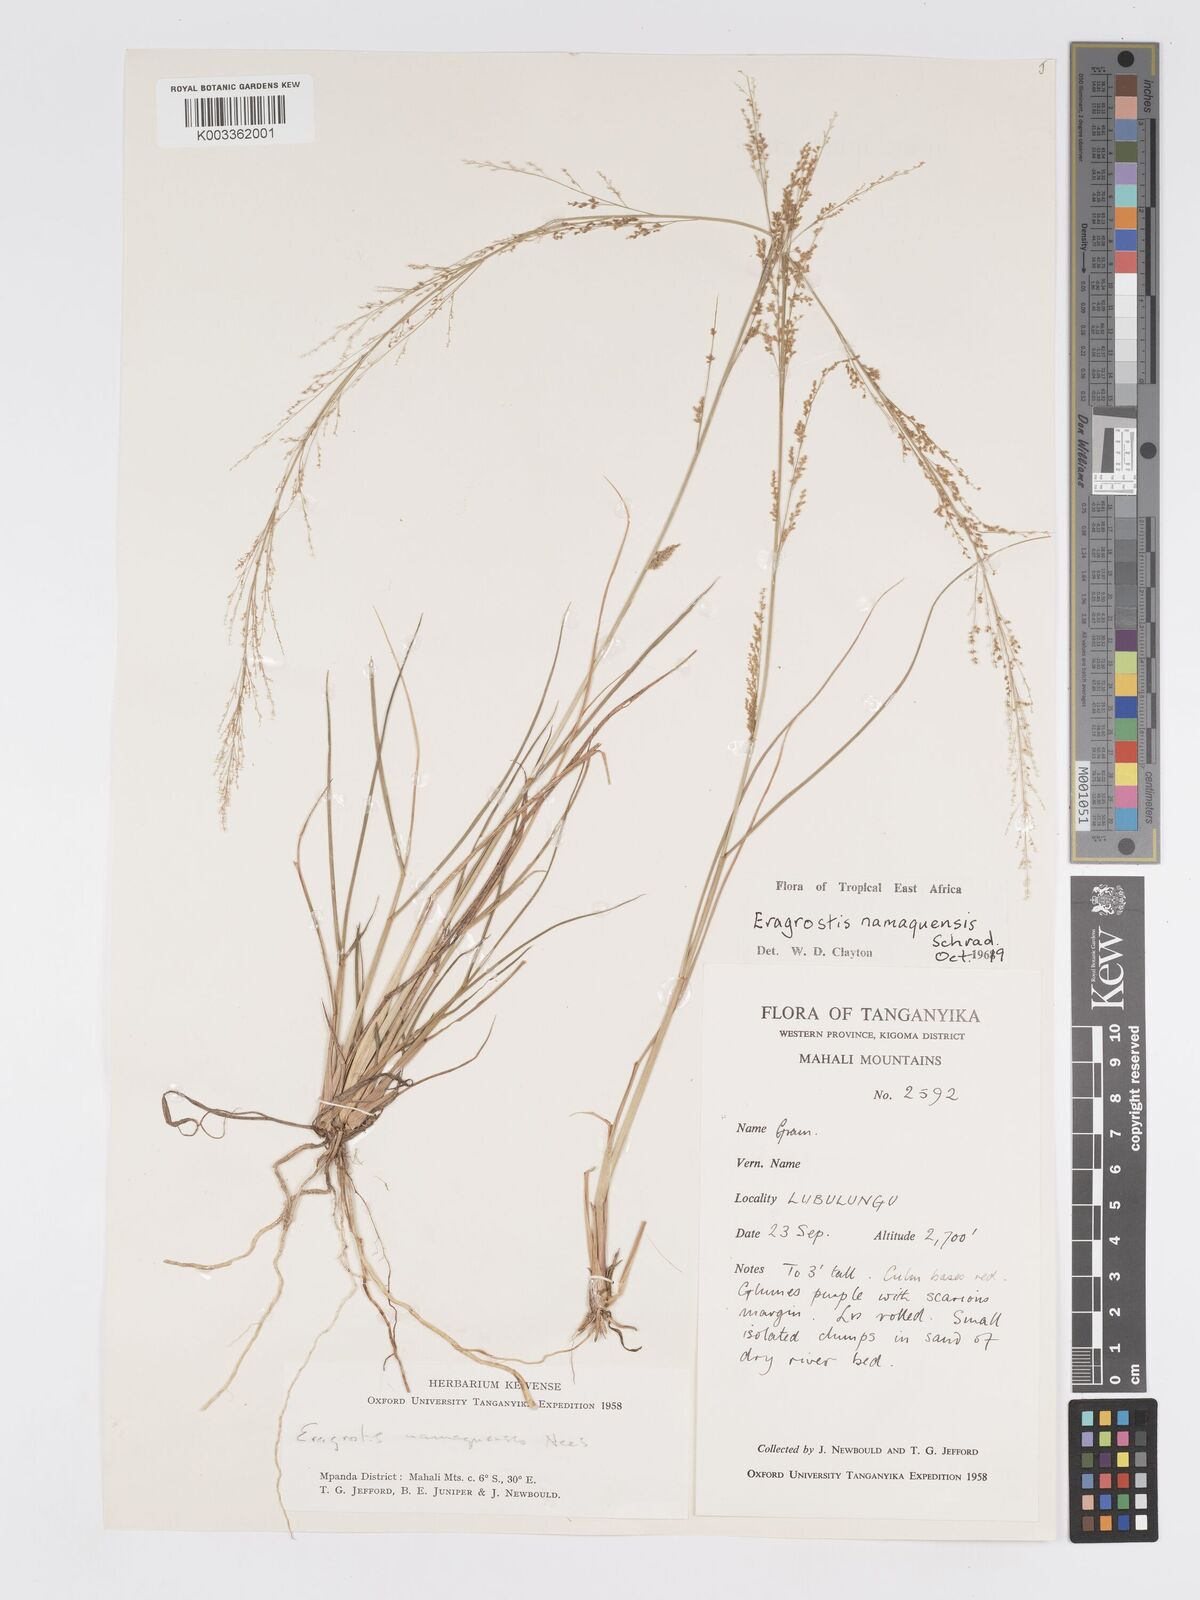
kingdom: Plantae
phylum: Tracheophyta
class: Liliopsida
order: Poales
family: Poaceae
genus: Eragrostis
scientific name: Eragrostis japonica
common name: Pond lovegrass
